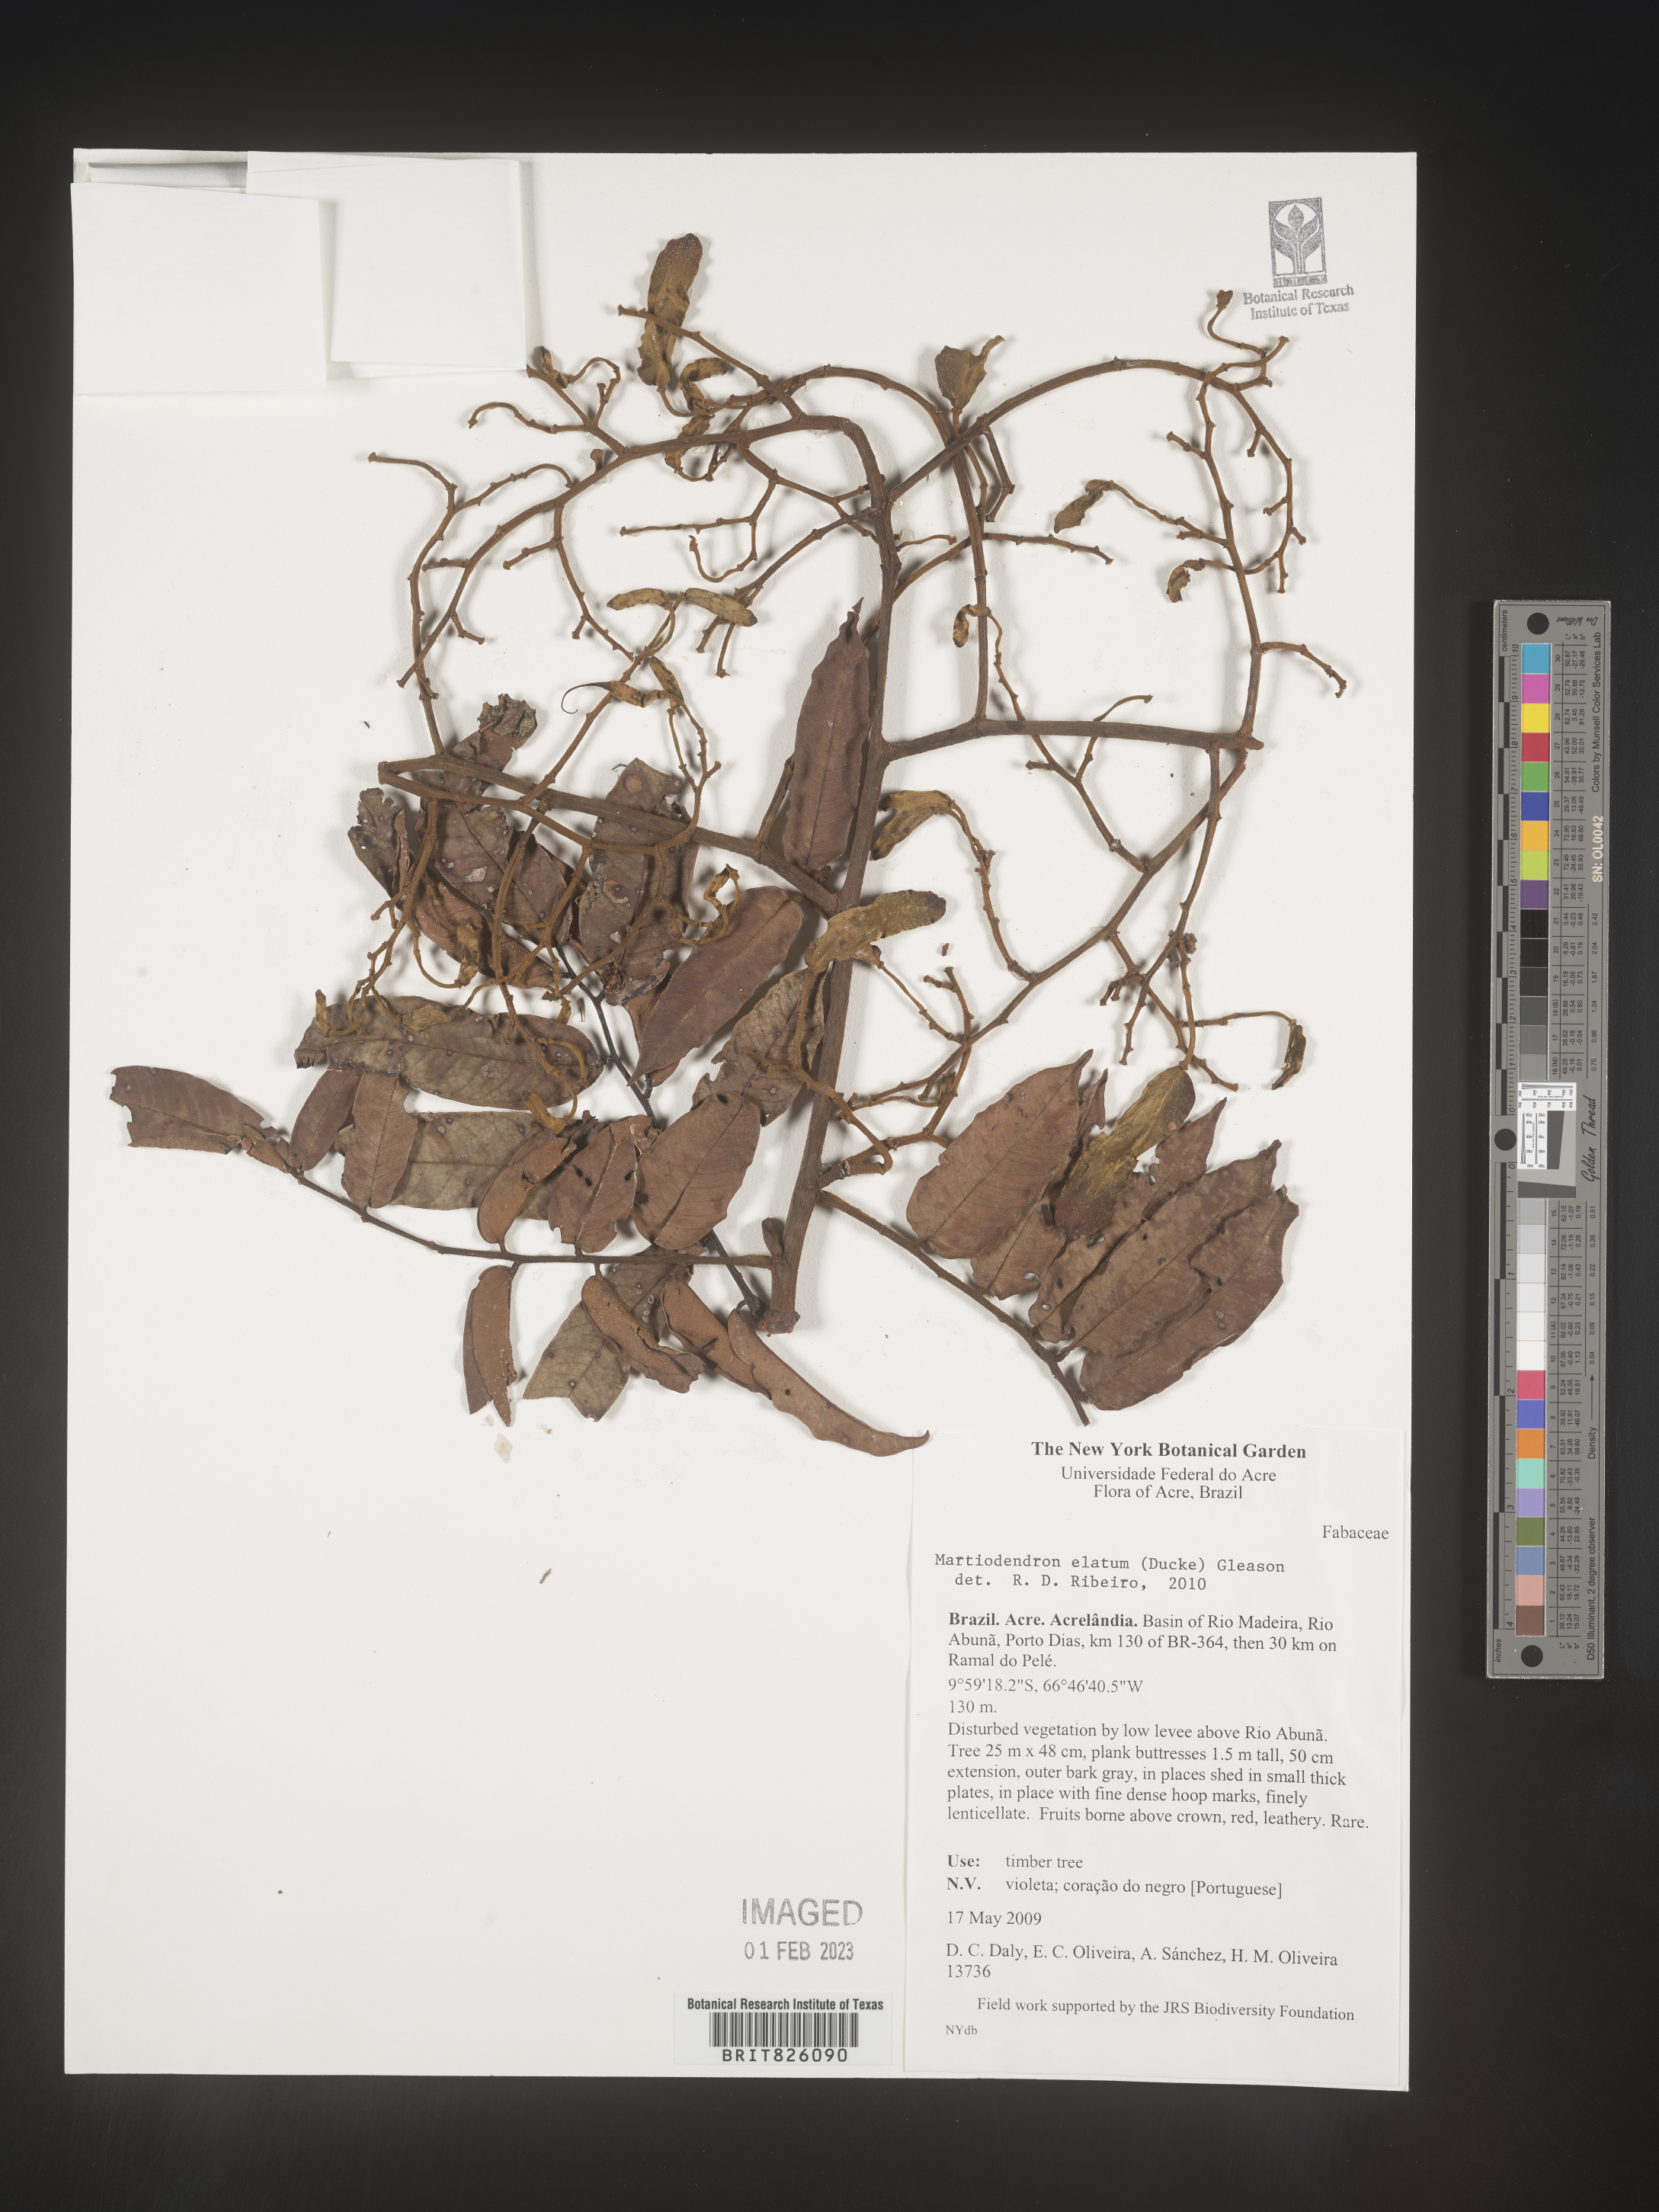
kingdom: Plantae
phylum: Tracheophyta
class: Magnoliopsida
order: Fabales
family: Fabaceae
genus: Martiodendron
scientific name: Martiodendron elatum
